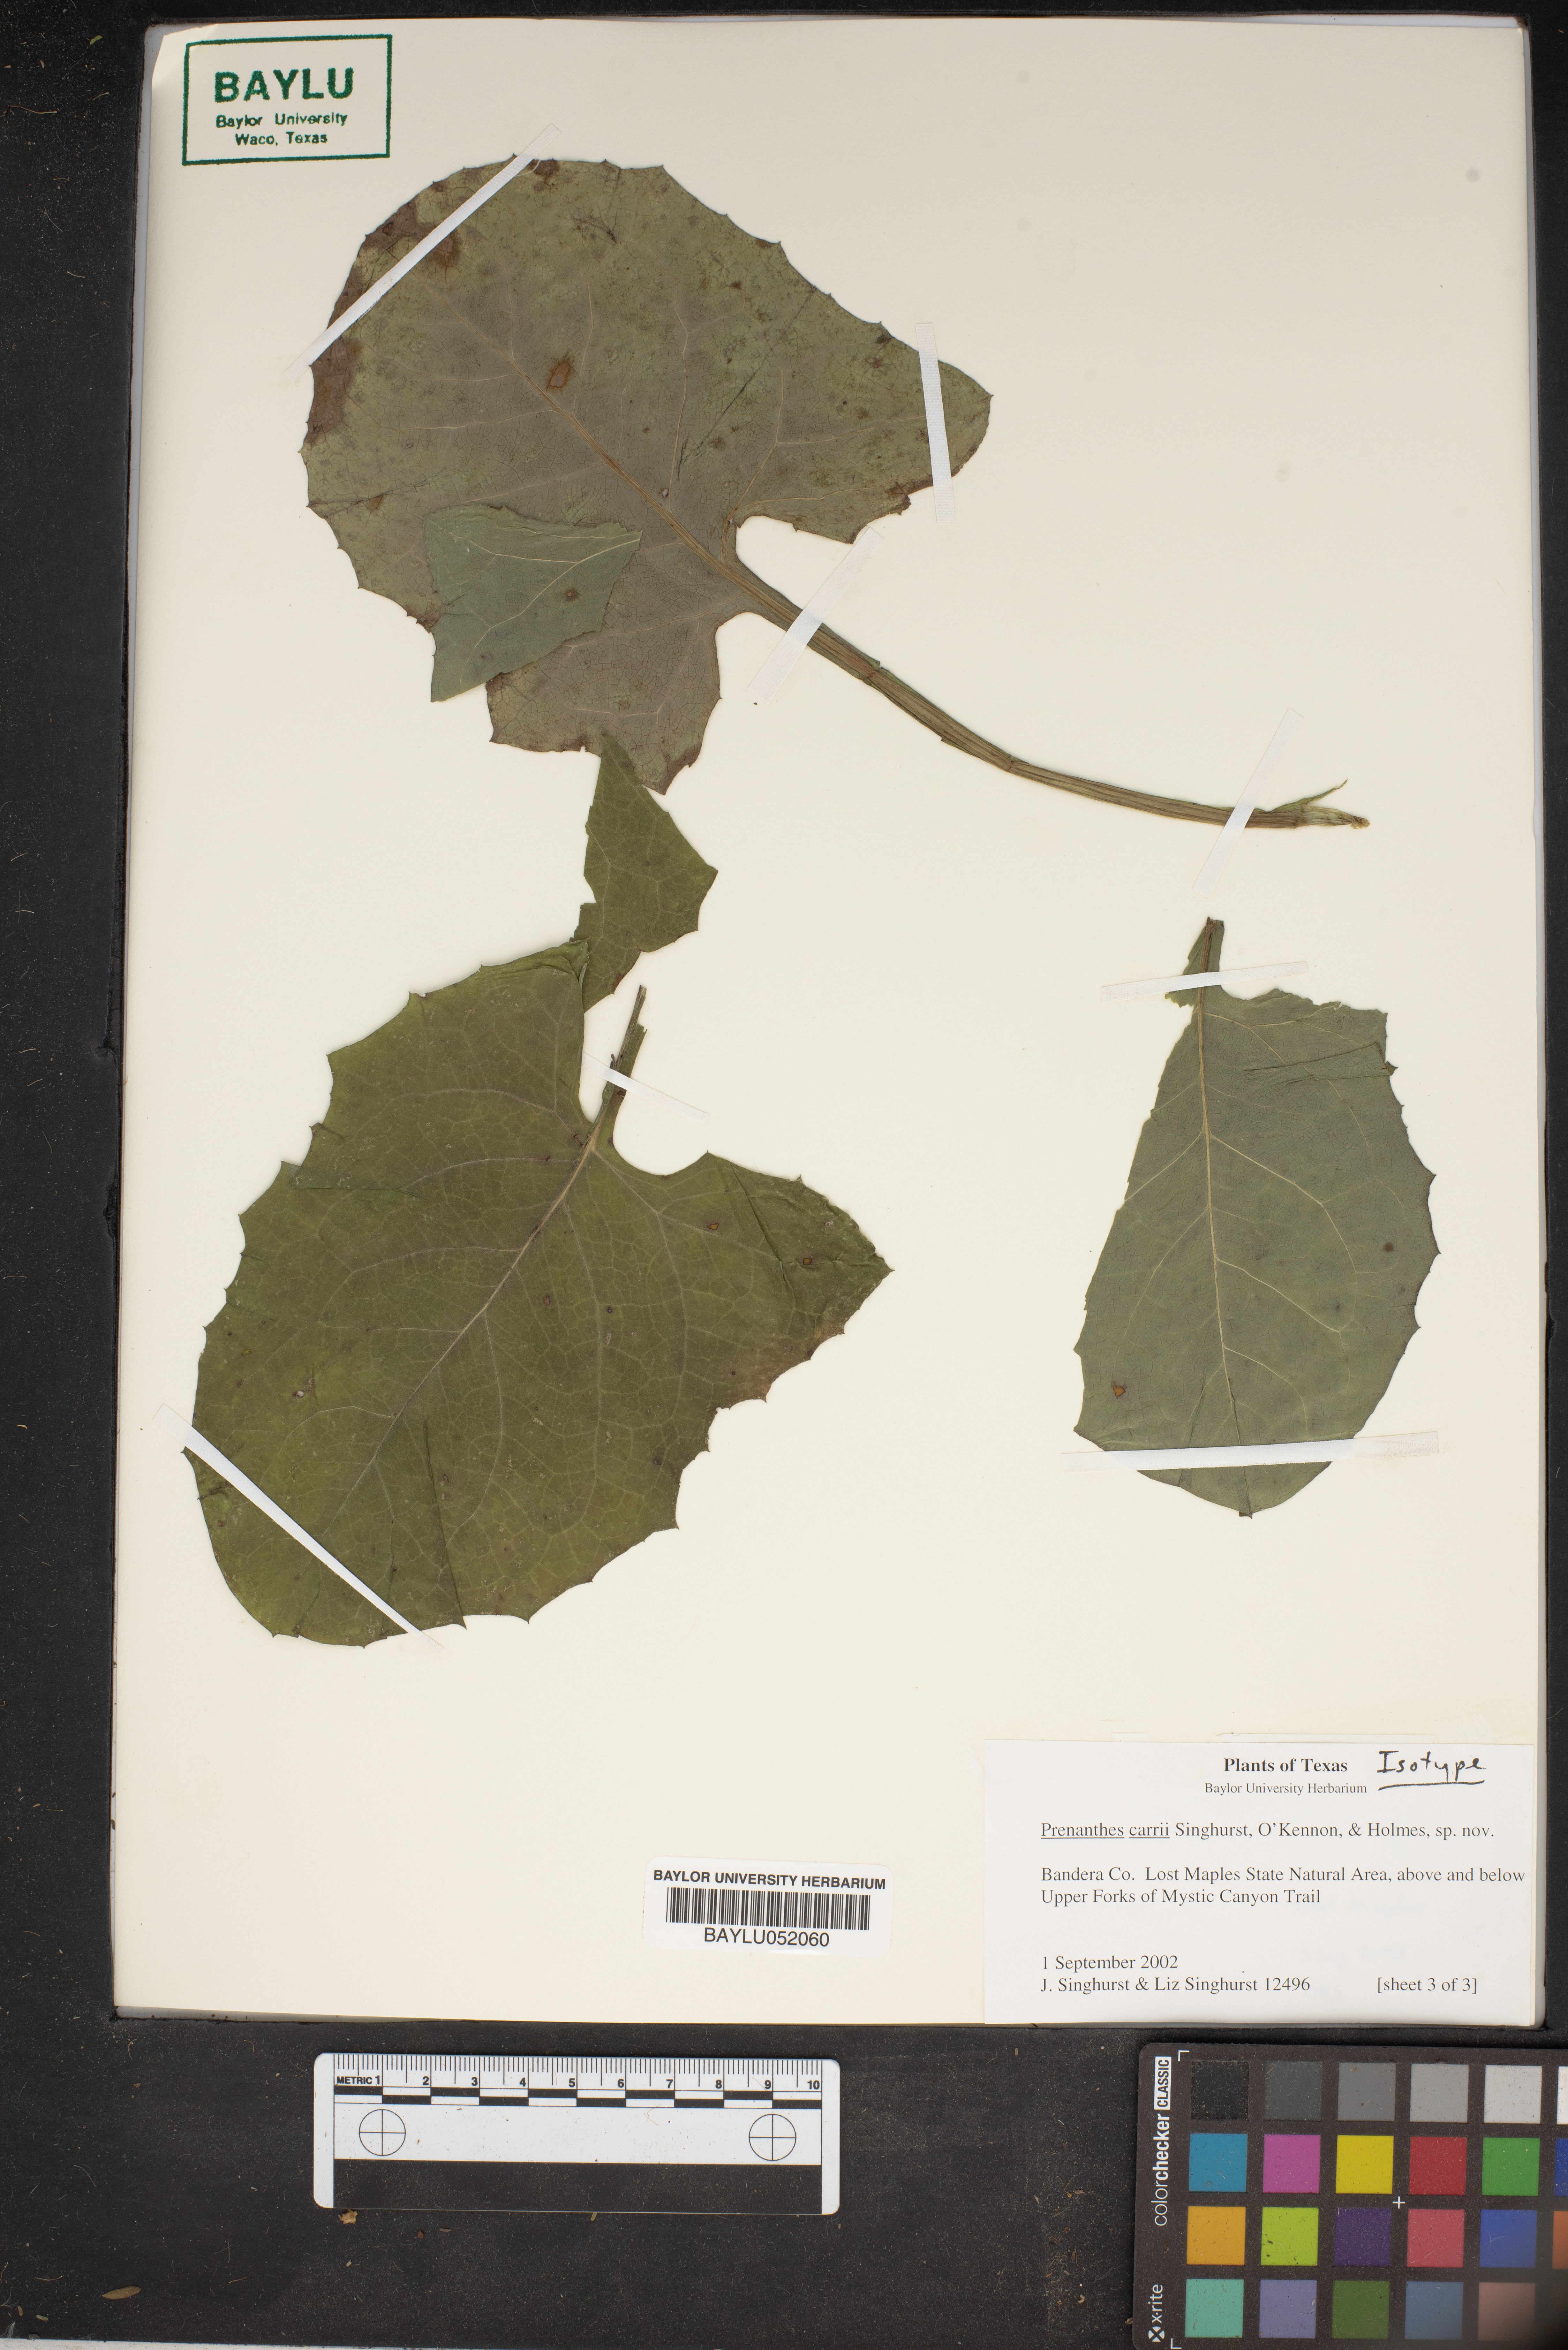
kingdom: Plantae
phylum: Tracheophyta
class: Magnoliopsida
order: Asterales
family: Asteraceae
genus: Nabalus
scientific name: Nabalus carrii
